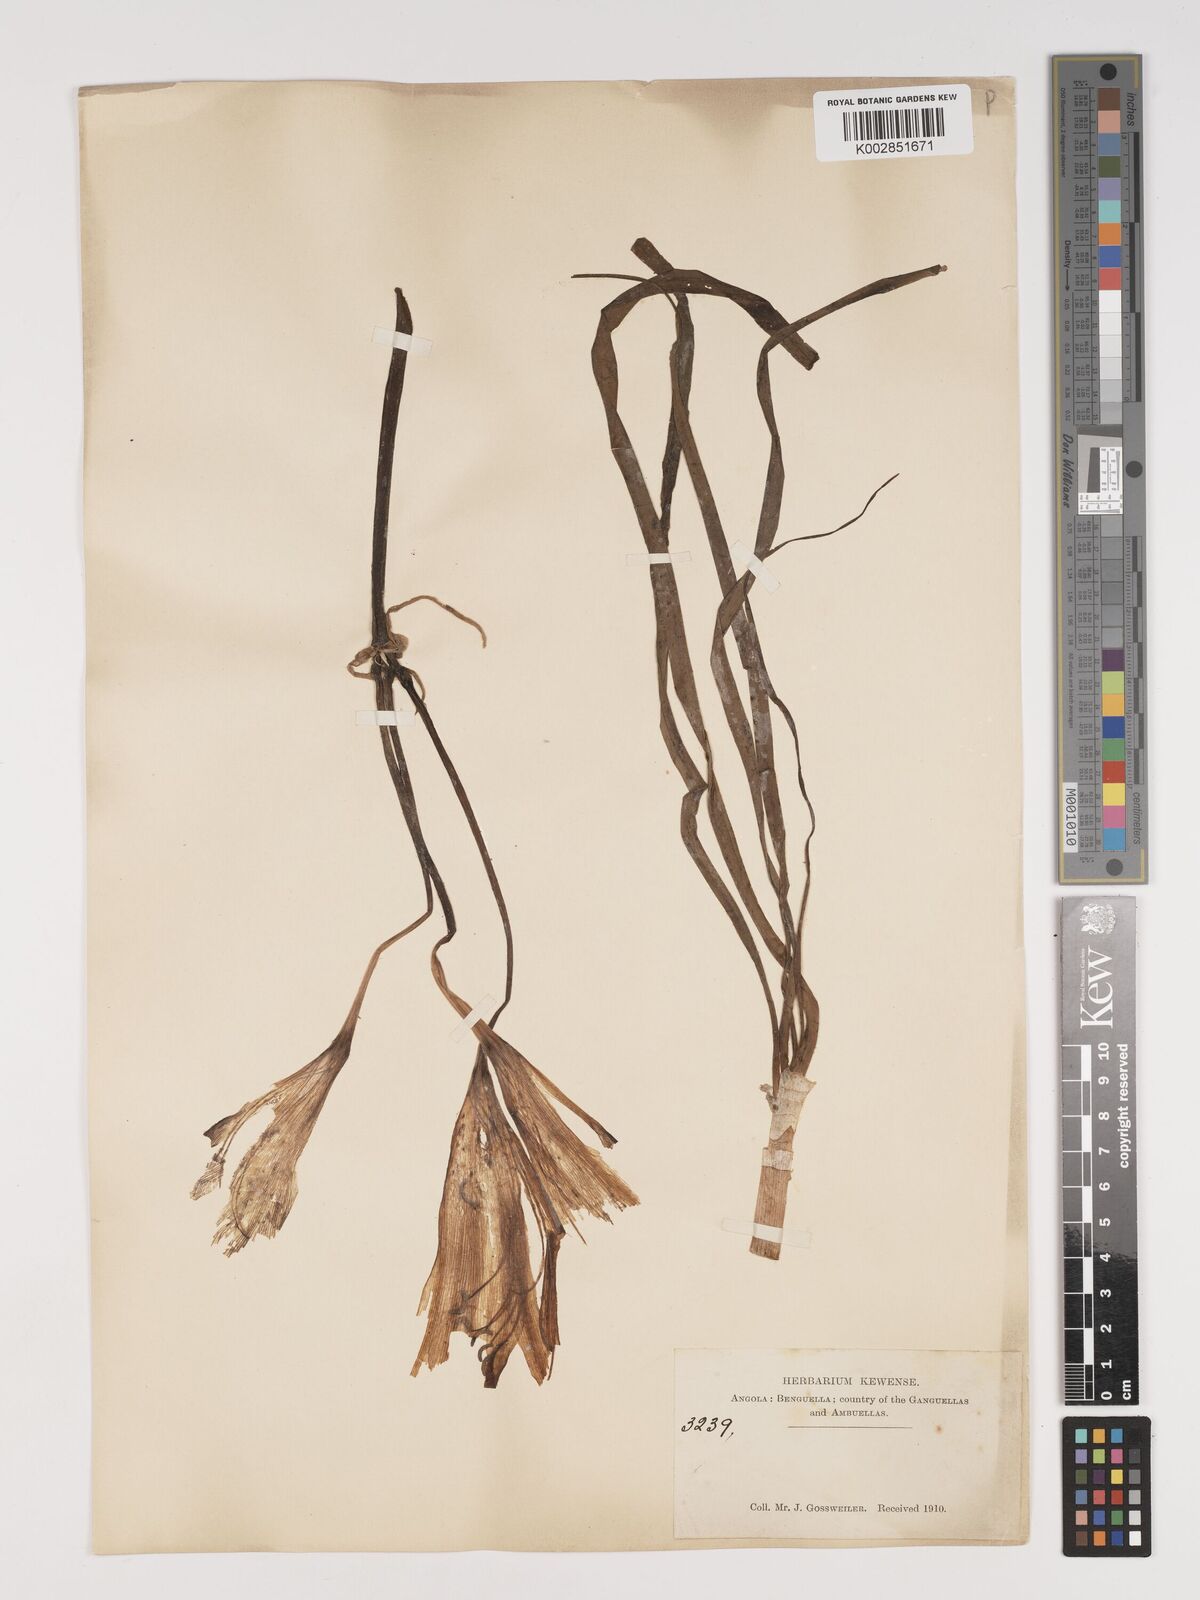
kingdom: Plantae
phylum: Tracheophyta
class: Liliopsida
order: Asparagales
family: Amaryllidaceae
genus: Crinum
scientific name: Crinum
